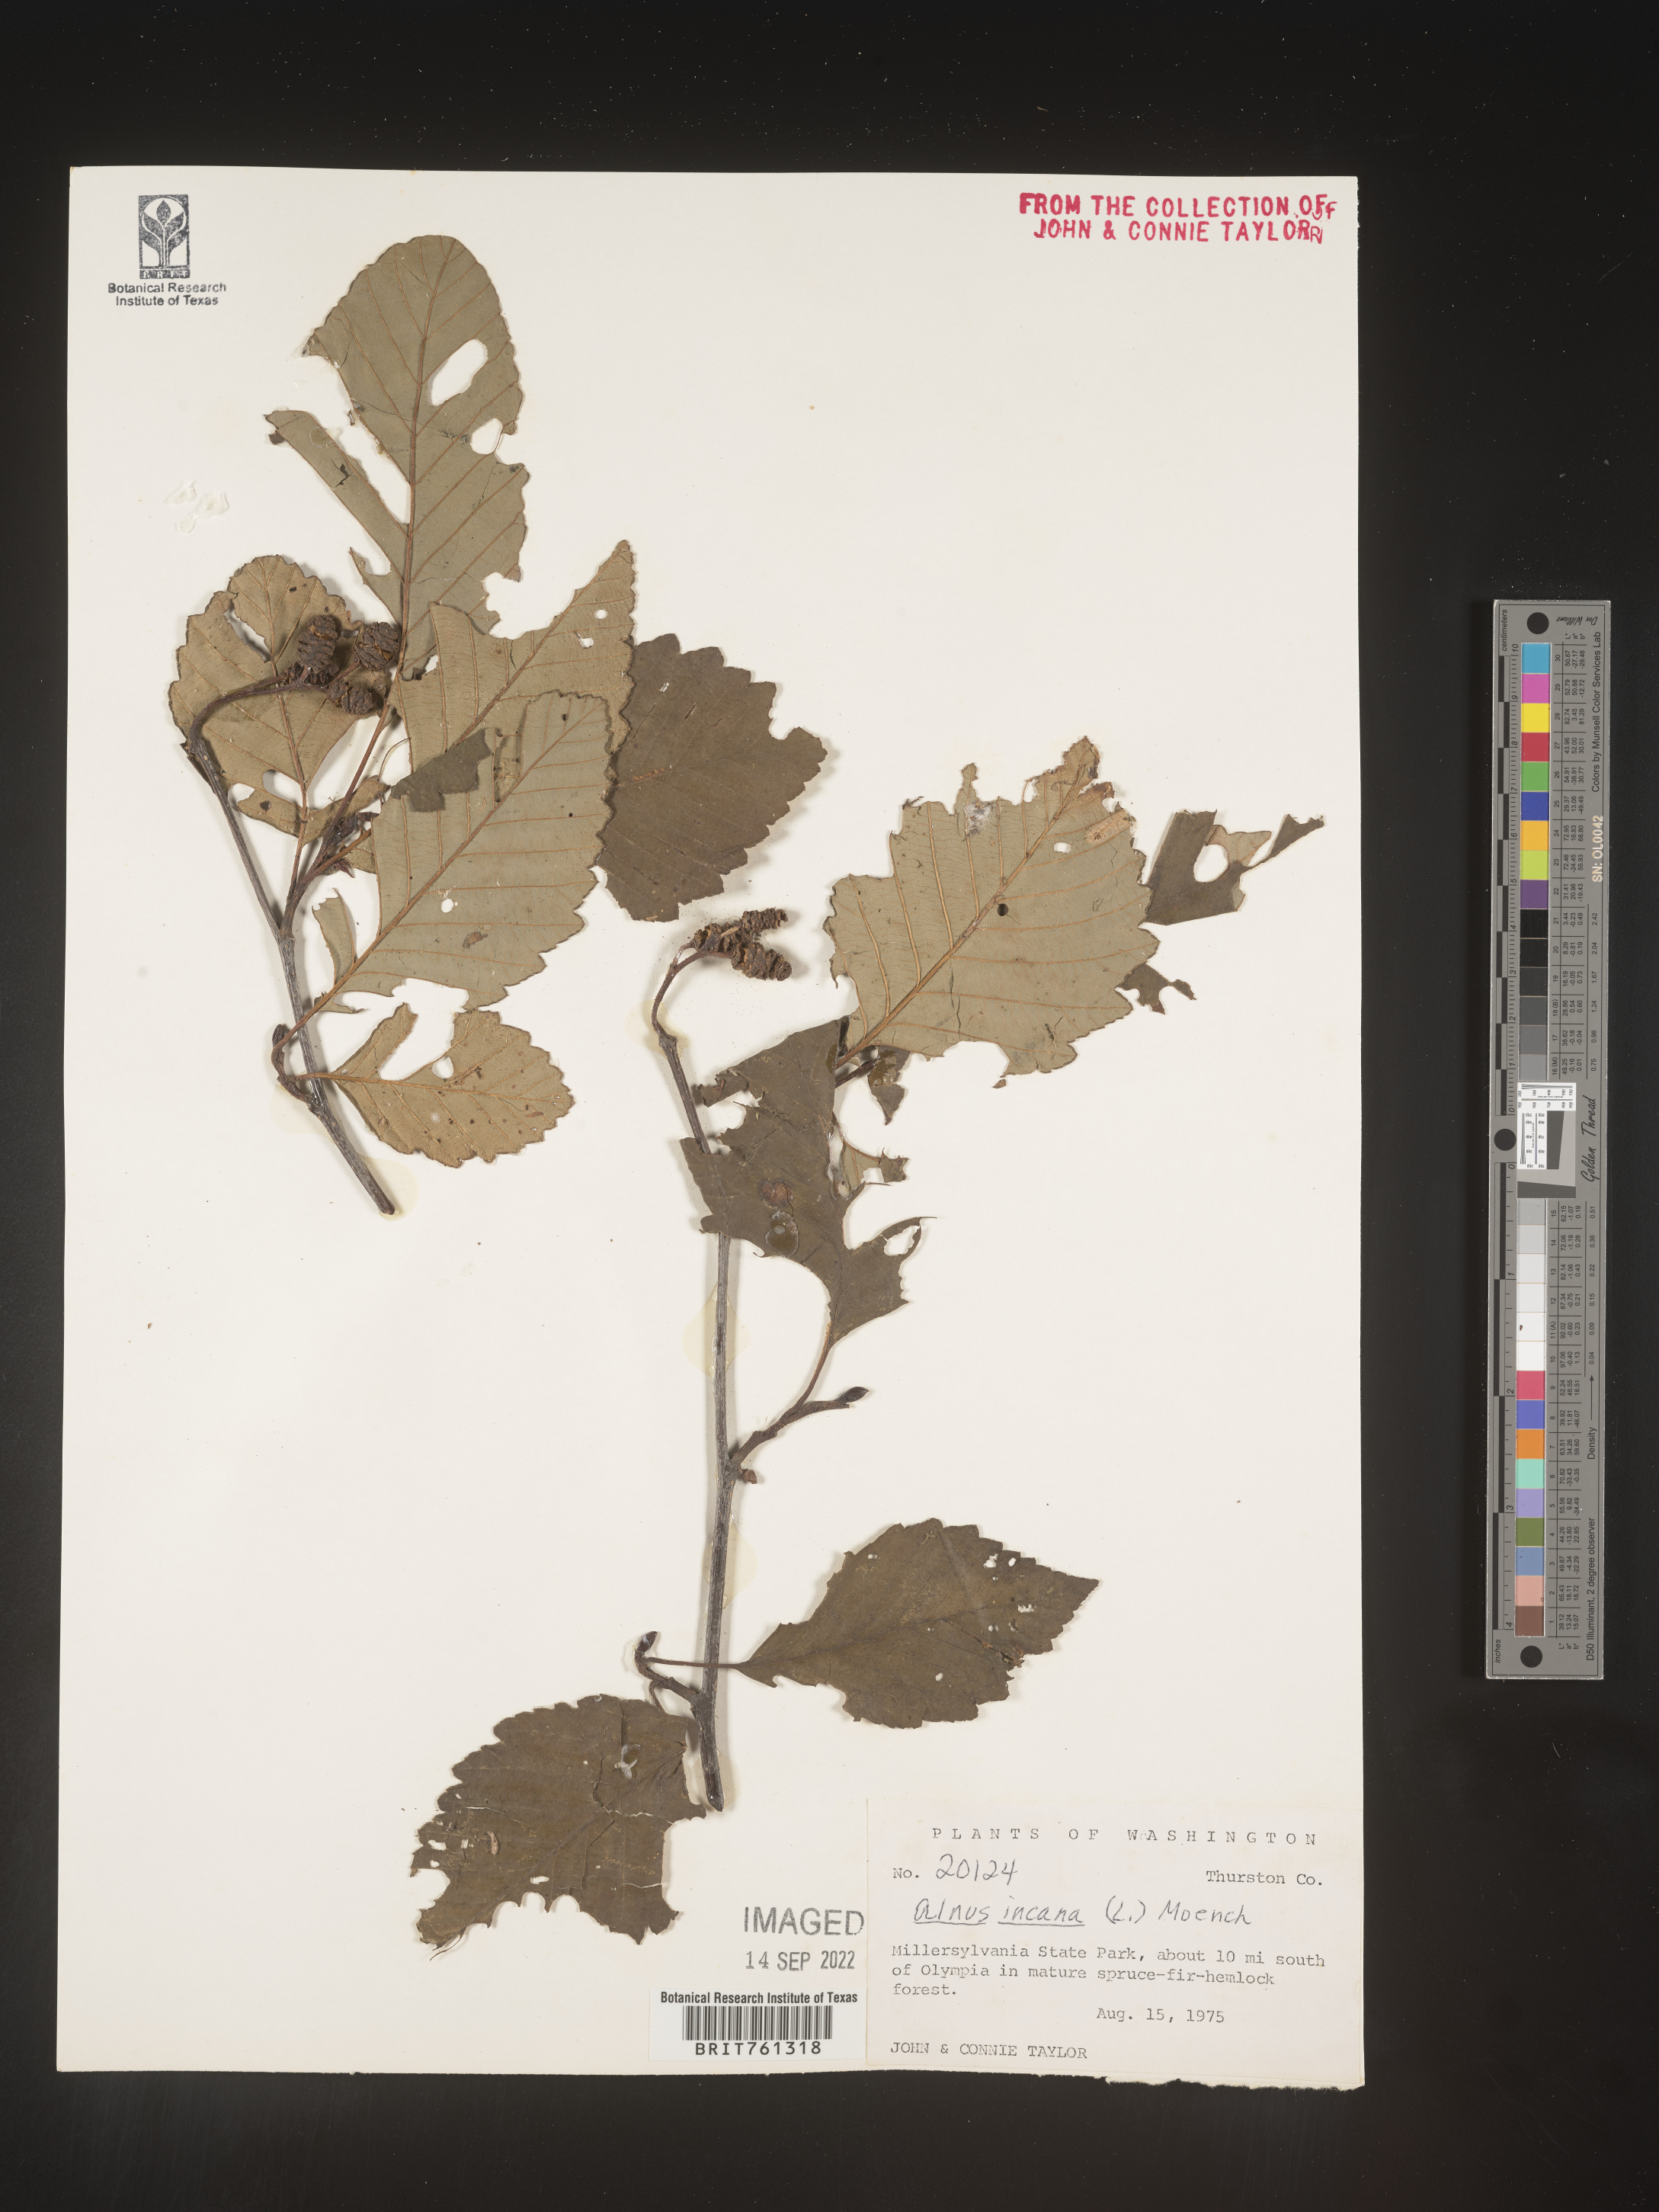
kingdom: Plantae
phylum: Tracheophyta
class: Magnoliopsida
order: Fagales
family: Betulaceae
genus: Alnus
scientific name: Alnus incana
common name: Grey alder
